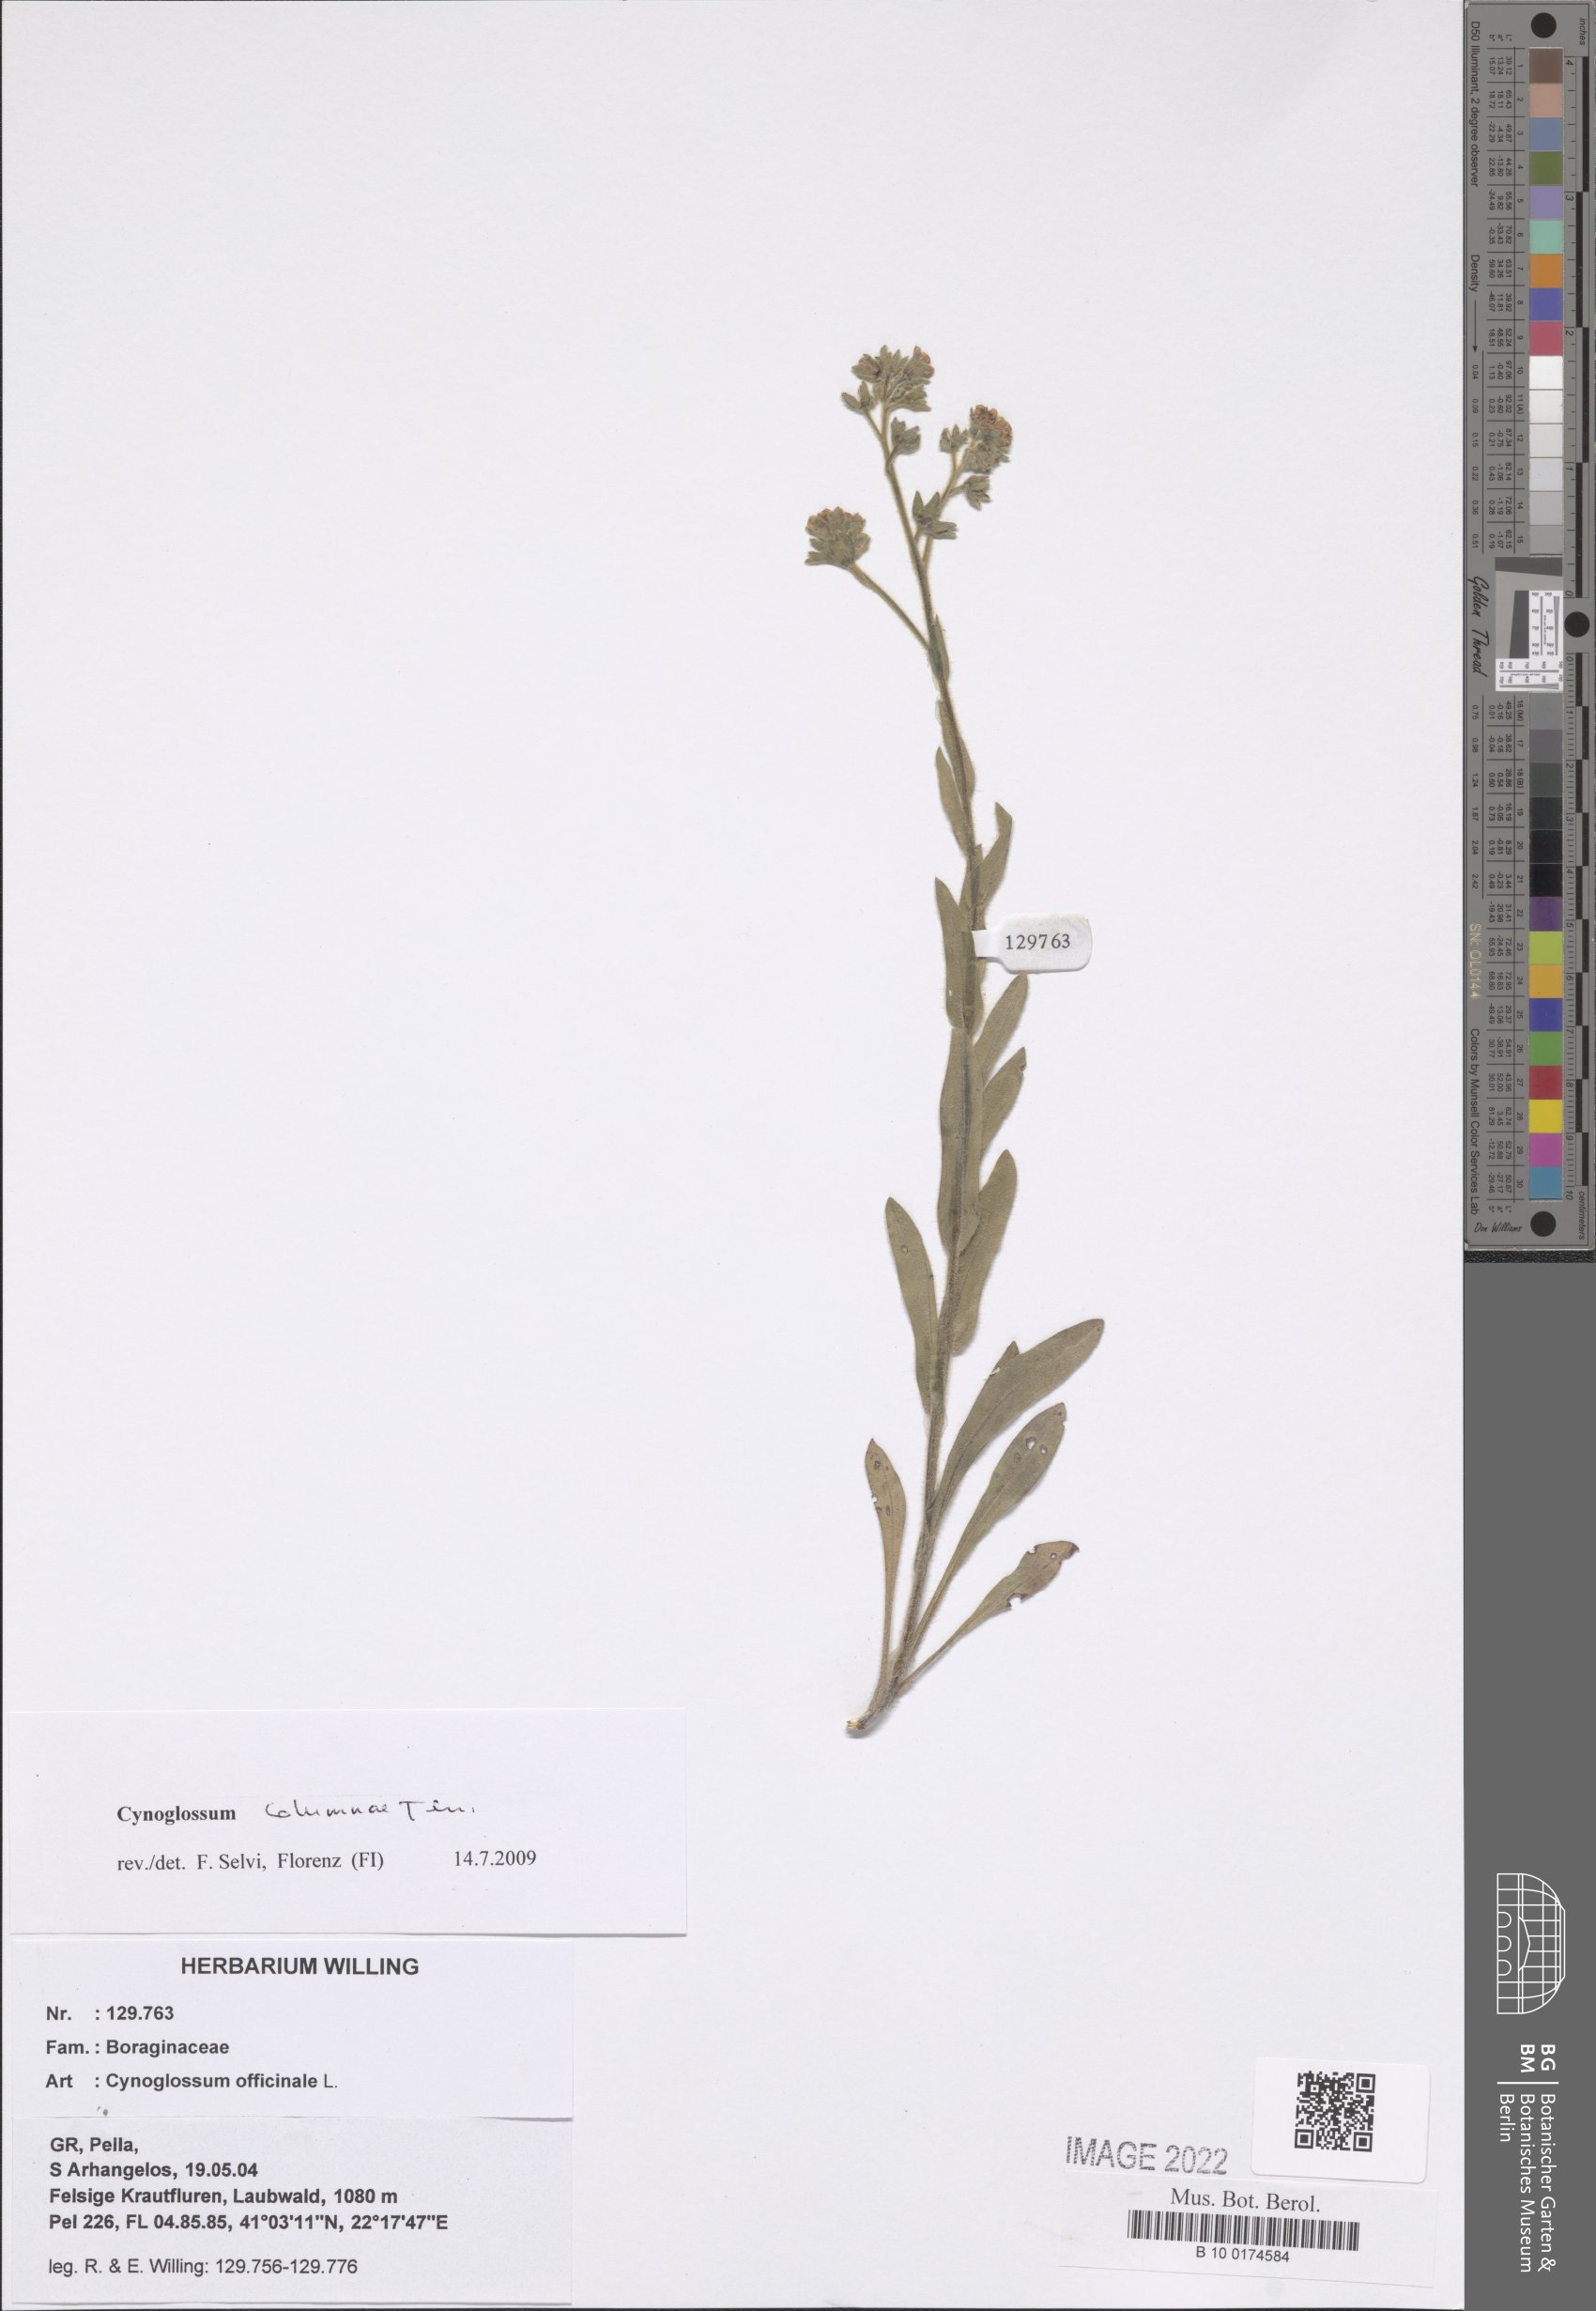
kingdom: Plantae
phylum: Tracheophyta
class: Magnoliopsida
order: Boraginales
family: Boraginaceae
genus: Rindera
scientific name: Rindera columnae
